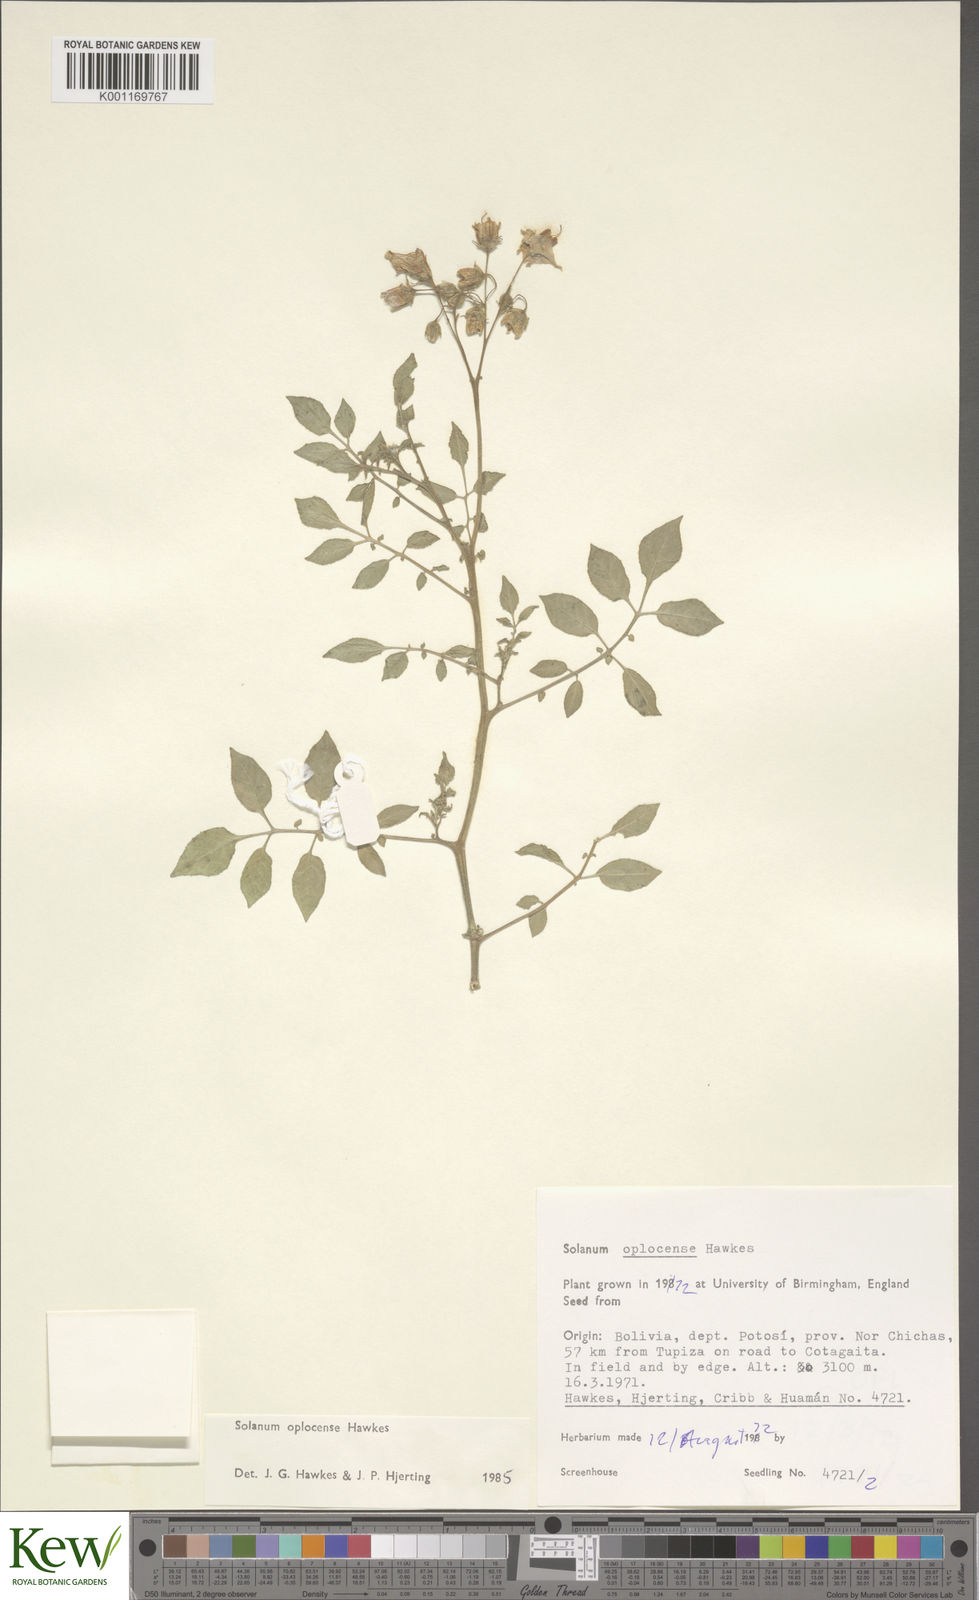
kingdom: Plantae
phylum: Tracheophyta
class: Magnoliopsida
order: Solanales
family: Solanaceae
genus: Solanum
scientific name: Solanum brevicaule
